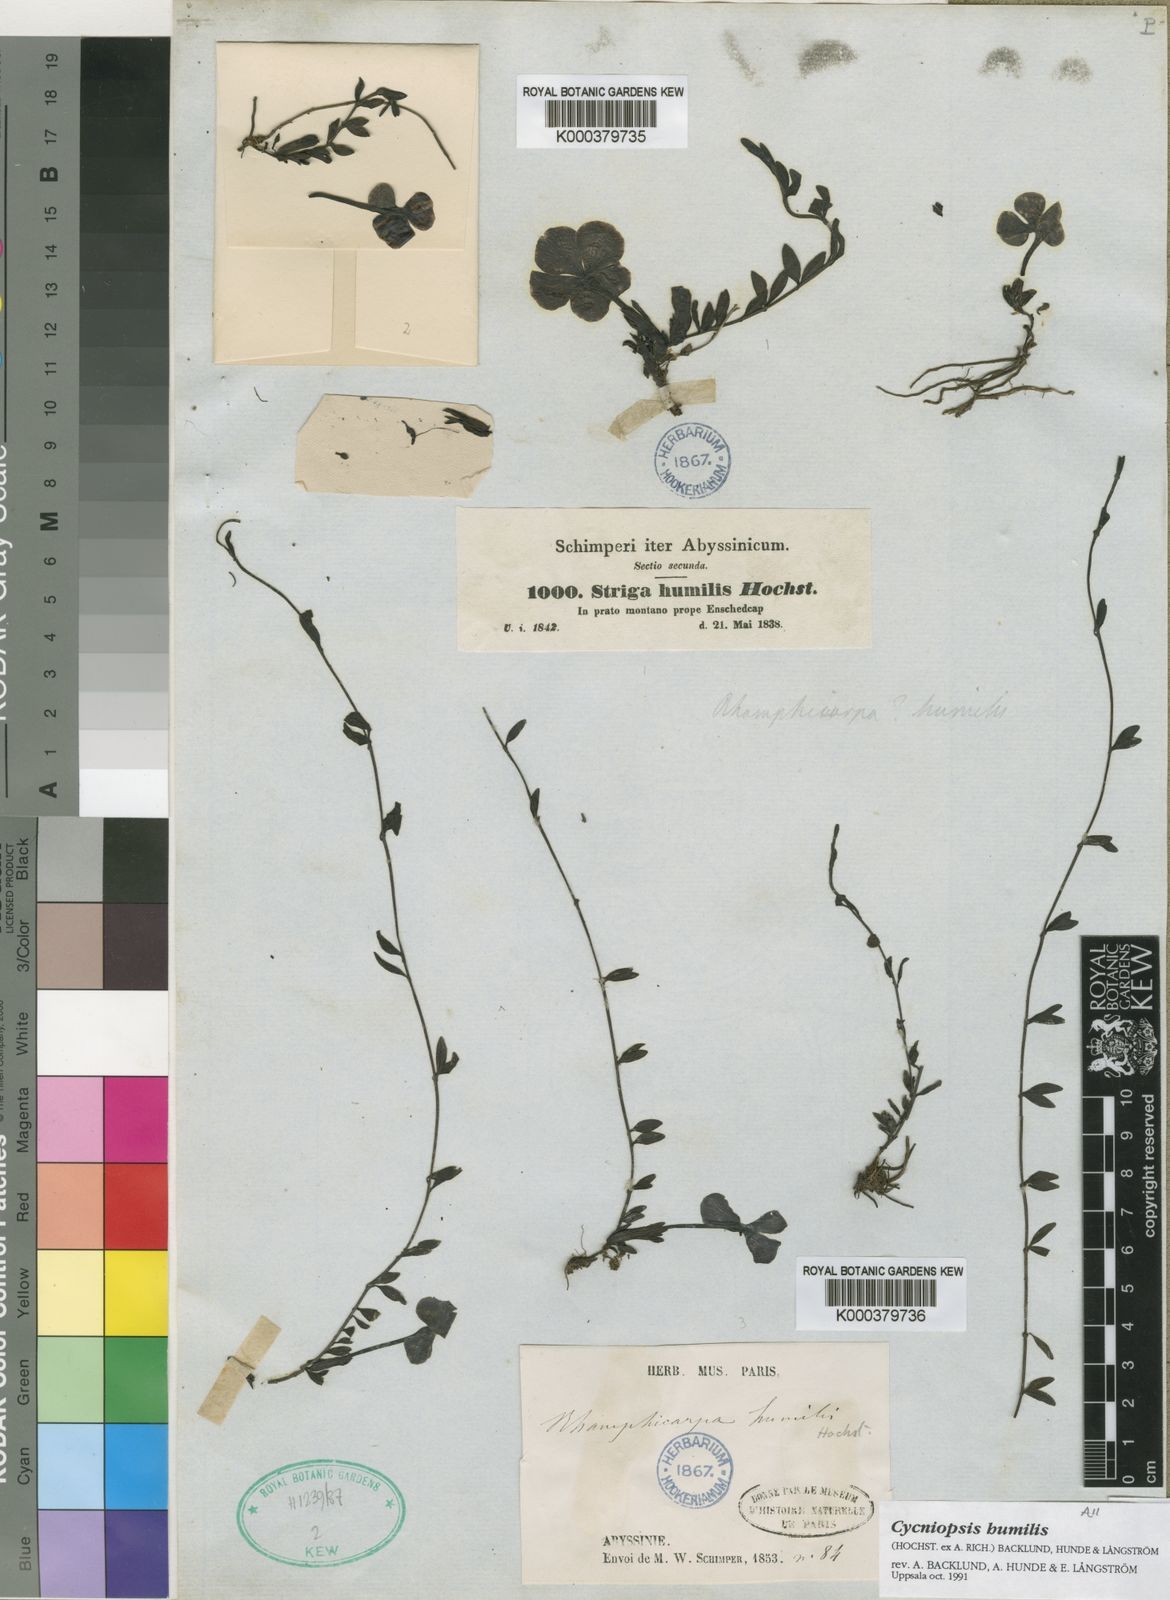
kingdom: Plantae
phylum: Tracheophyta
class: Magnoliopsida
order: Lamiales
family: Orobanchaceae
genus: Cycniopsis
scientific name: Cycniopsis
